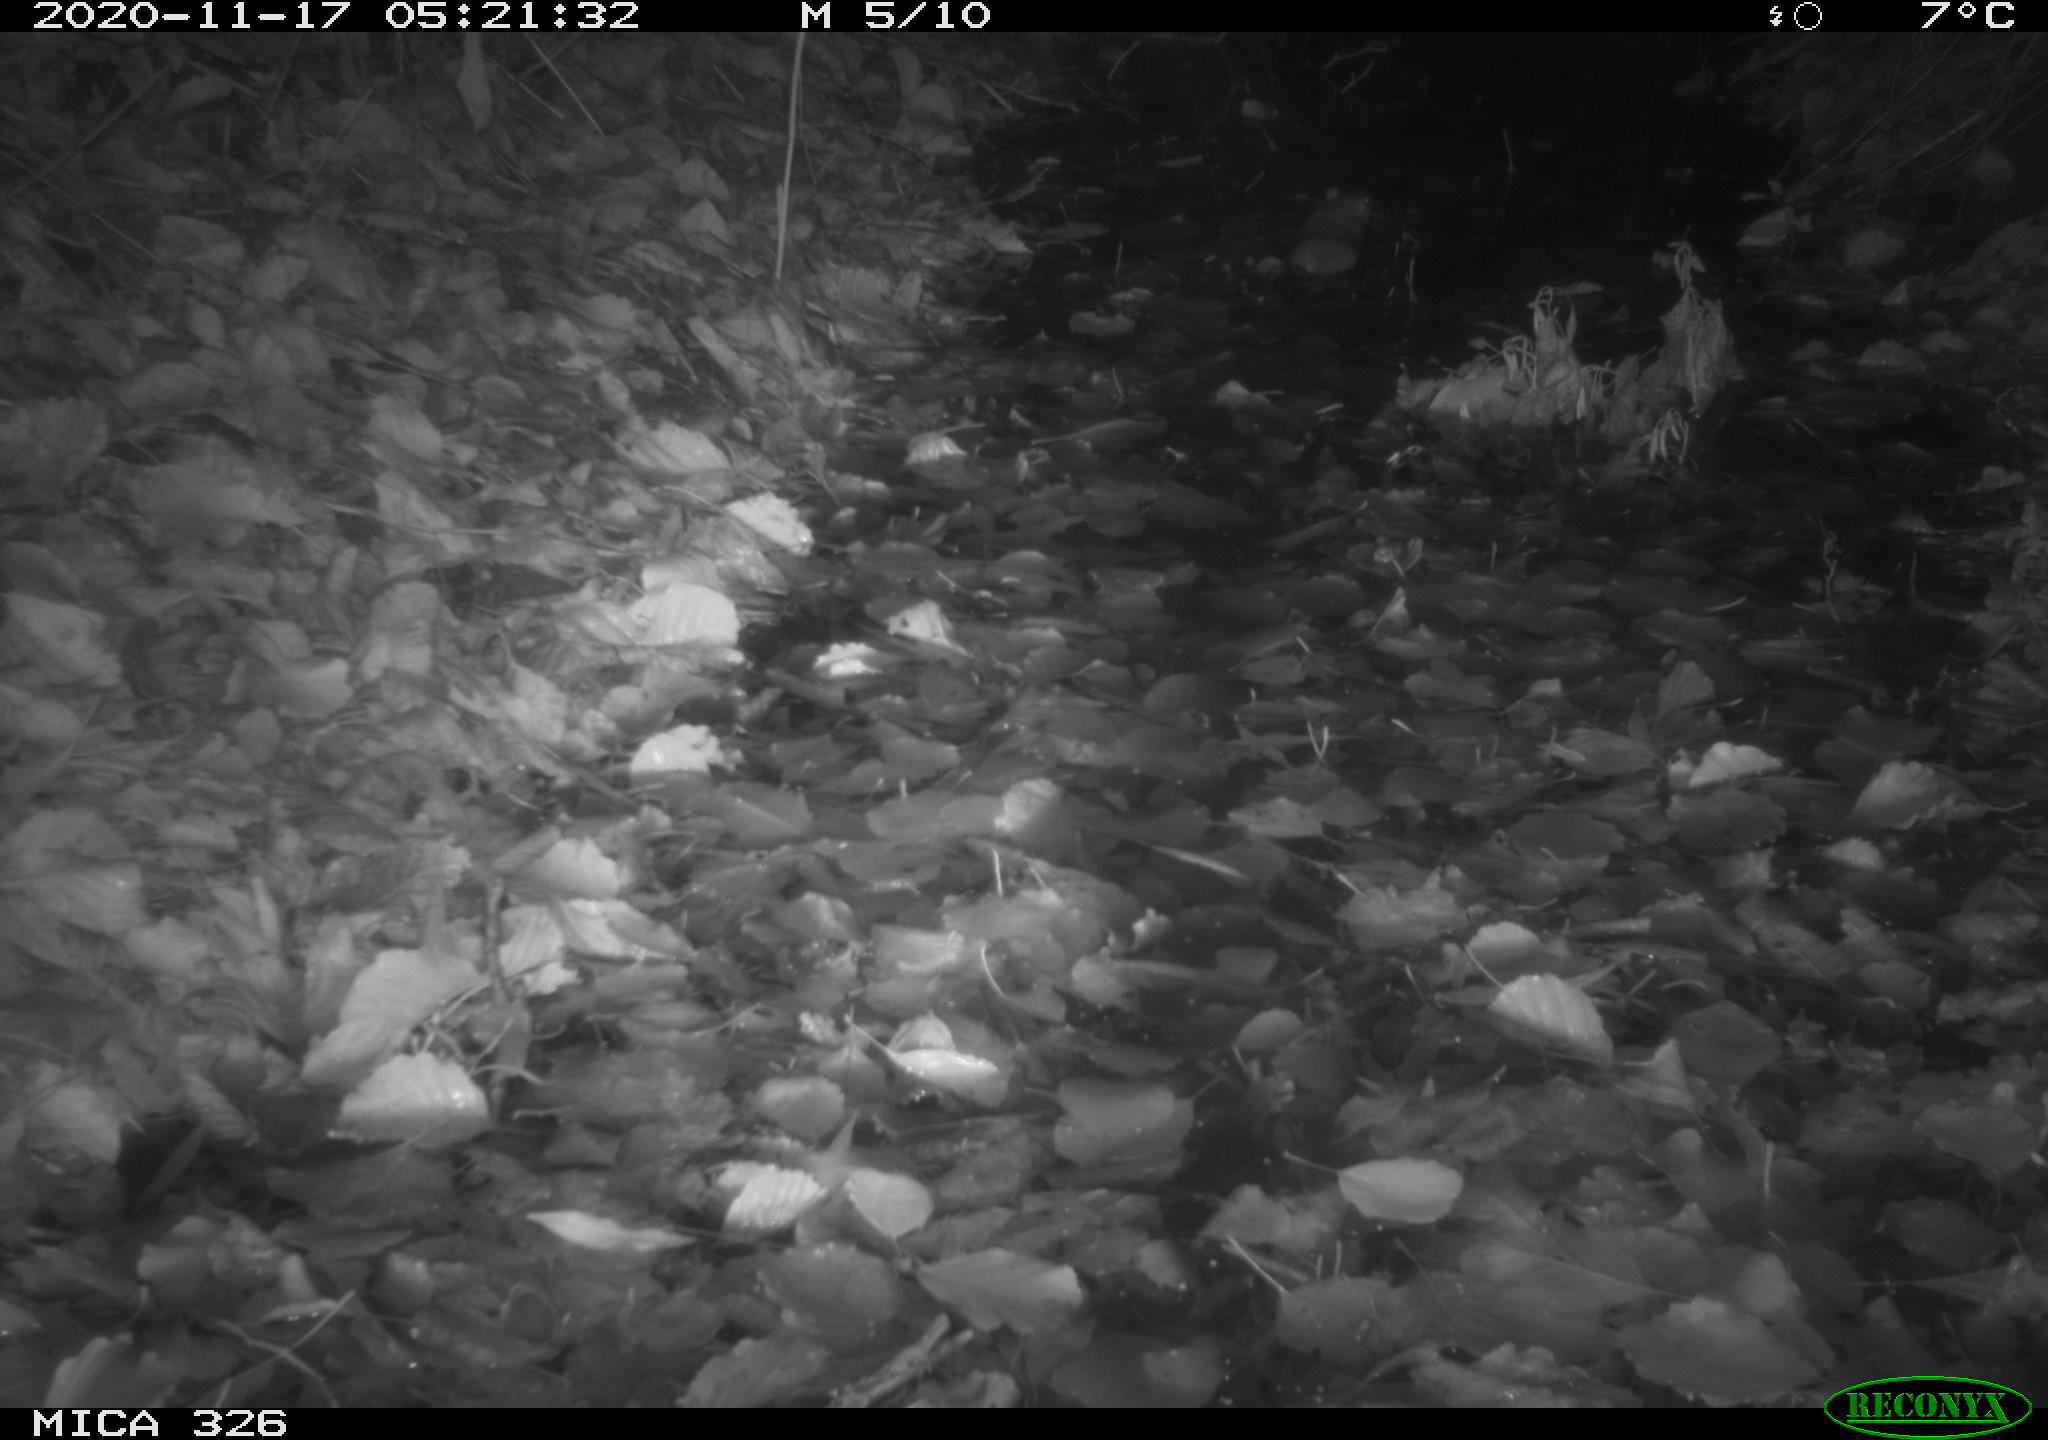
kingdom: Animalia
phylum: Chordata
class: Mammalia
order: Rodentia
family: Muridae
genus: Rattus
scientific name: Rattus norvegicus
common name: Brown rat
